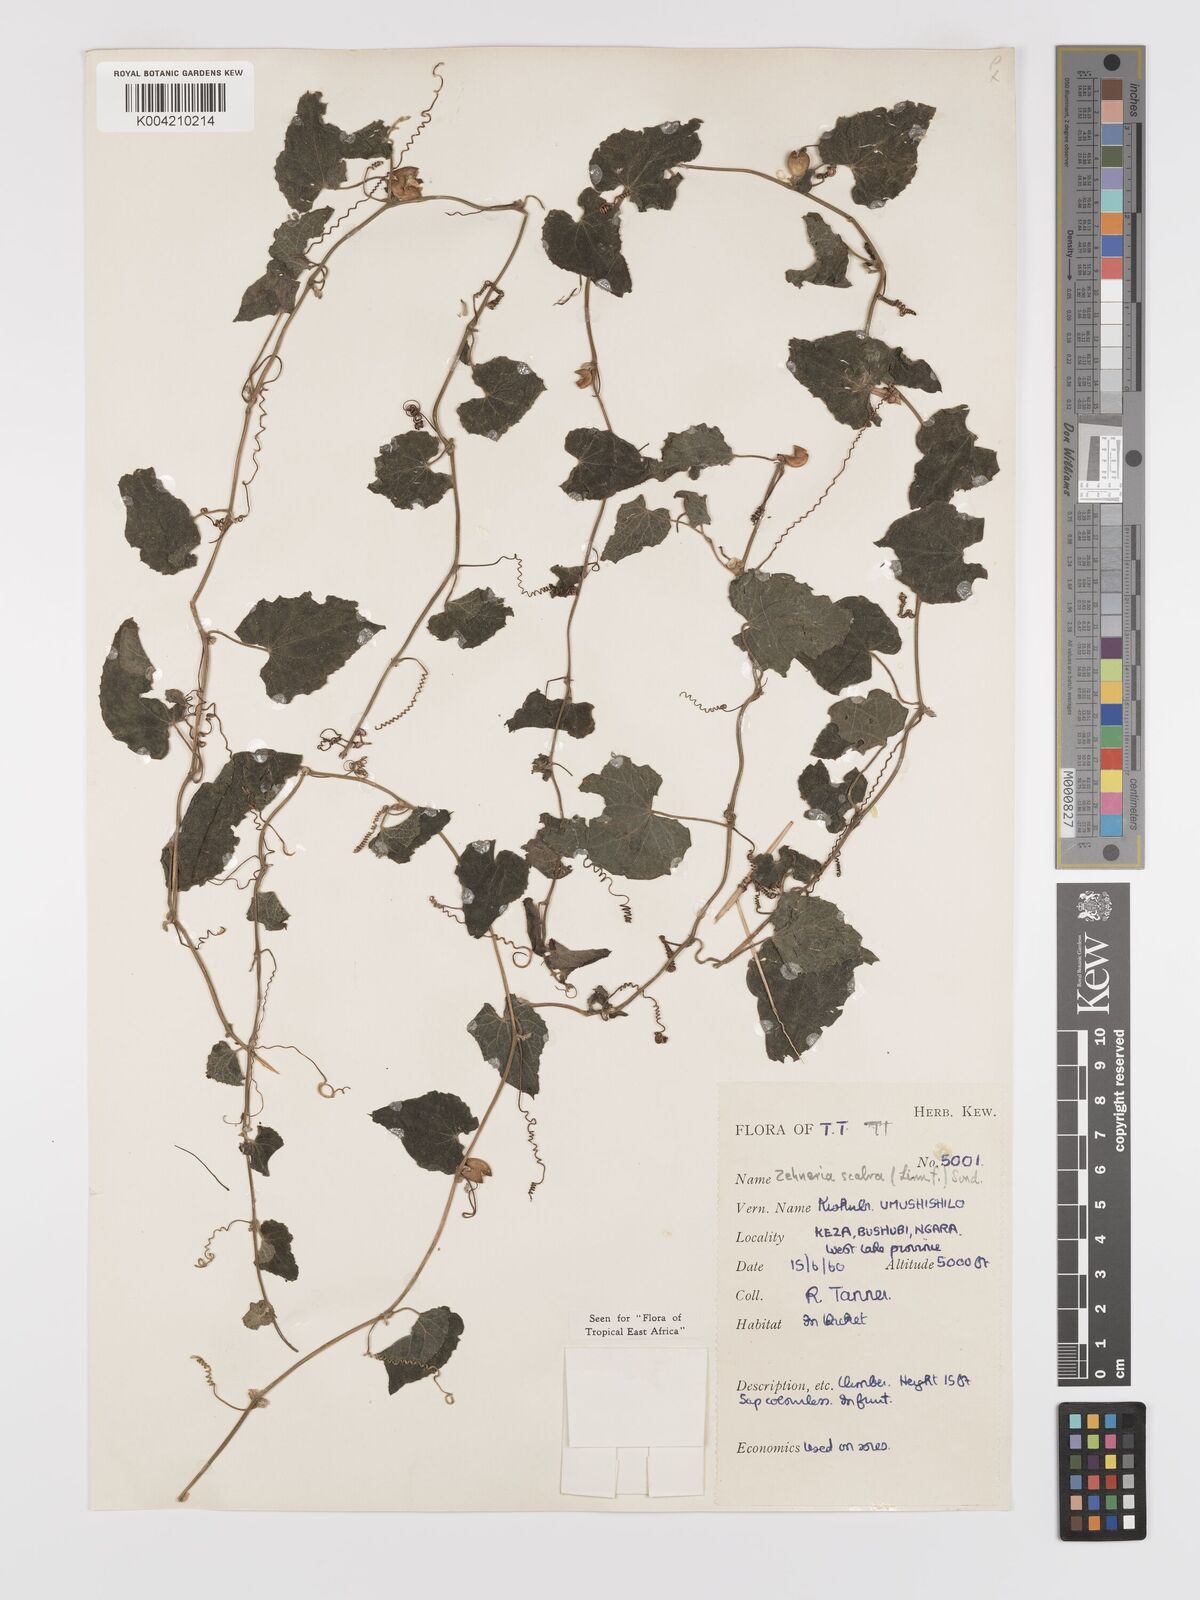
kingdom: Plantae
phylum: Tracheophyta
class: Magnoliopsida
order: Cucurbitales
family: Cucurbitaceae
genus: Zehneria
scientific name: Zehneria scabra
